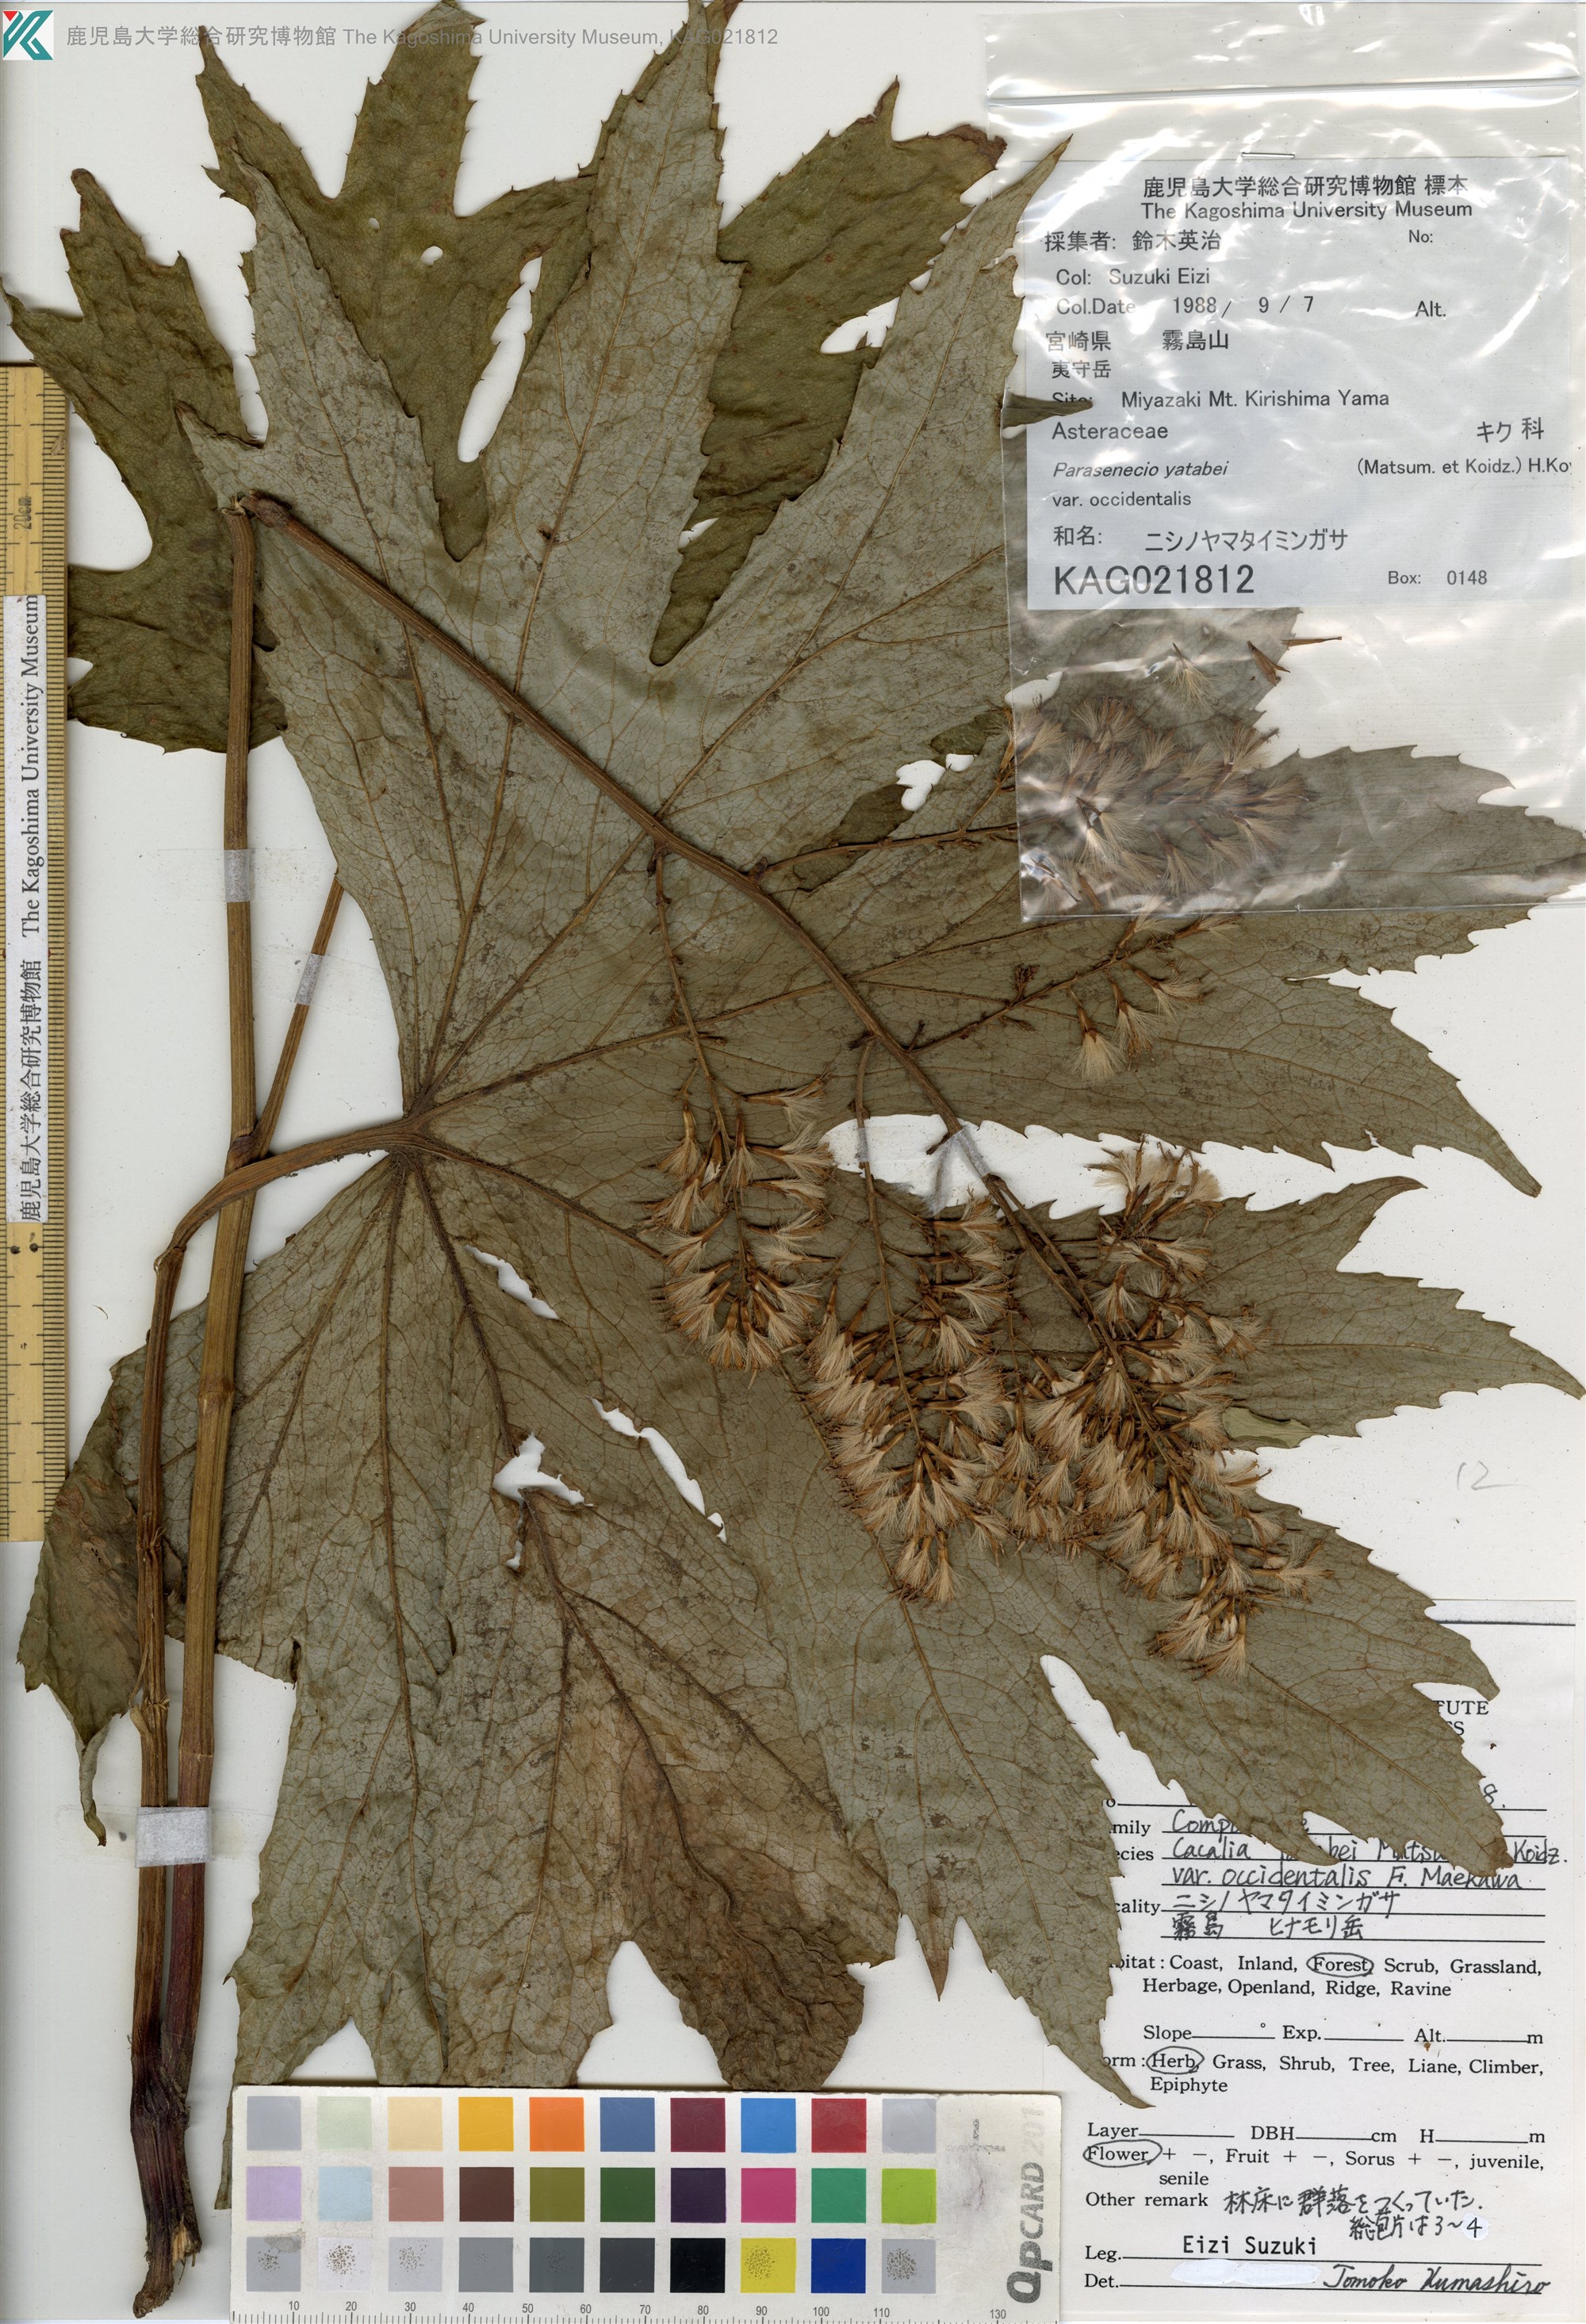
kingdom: Plantae
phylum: Tracheophyta
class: Magnoliopsida
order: Asterales
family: Asteraceae
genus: Taimingasa
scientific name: Taimingasa yatabei
